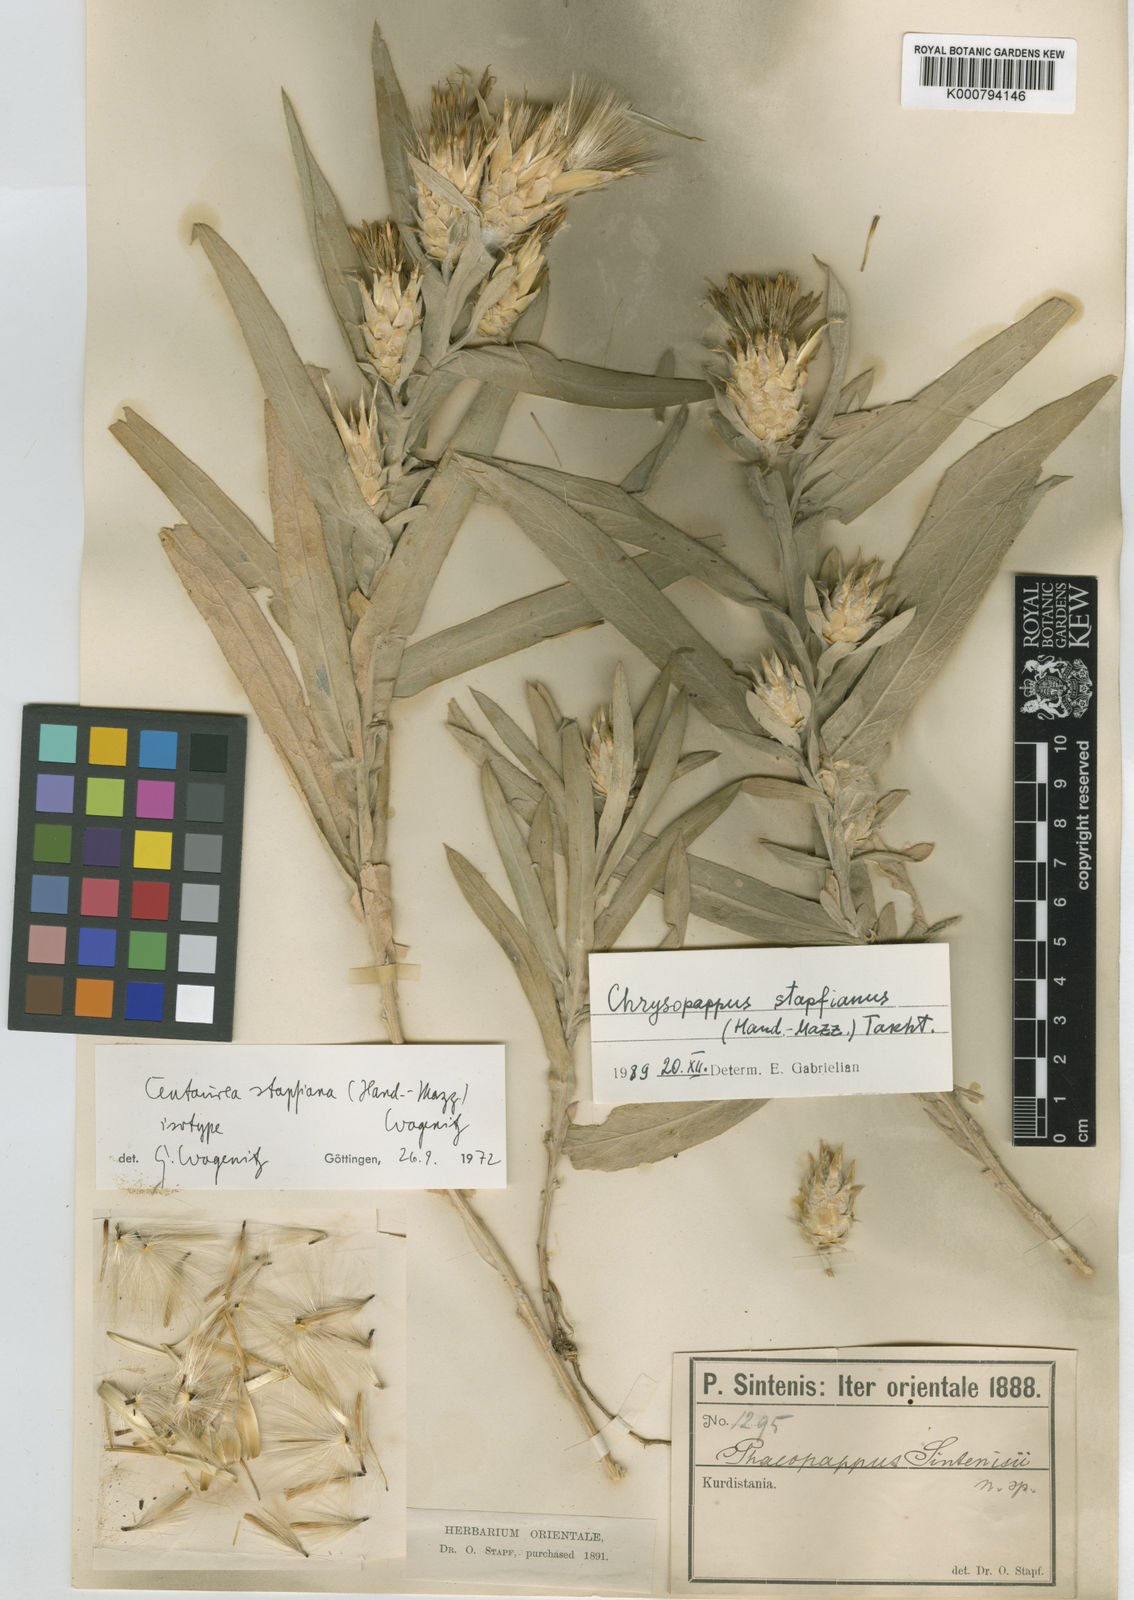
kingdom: Plantae
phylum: Tracheophyta
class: Magnoliopsida
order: Asterales
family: Asteraceae
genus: Centaurea
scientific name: Centaurea stapfiana
